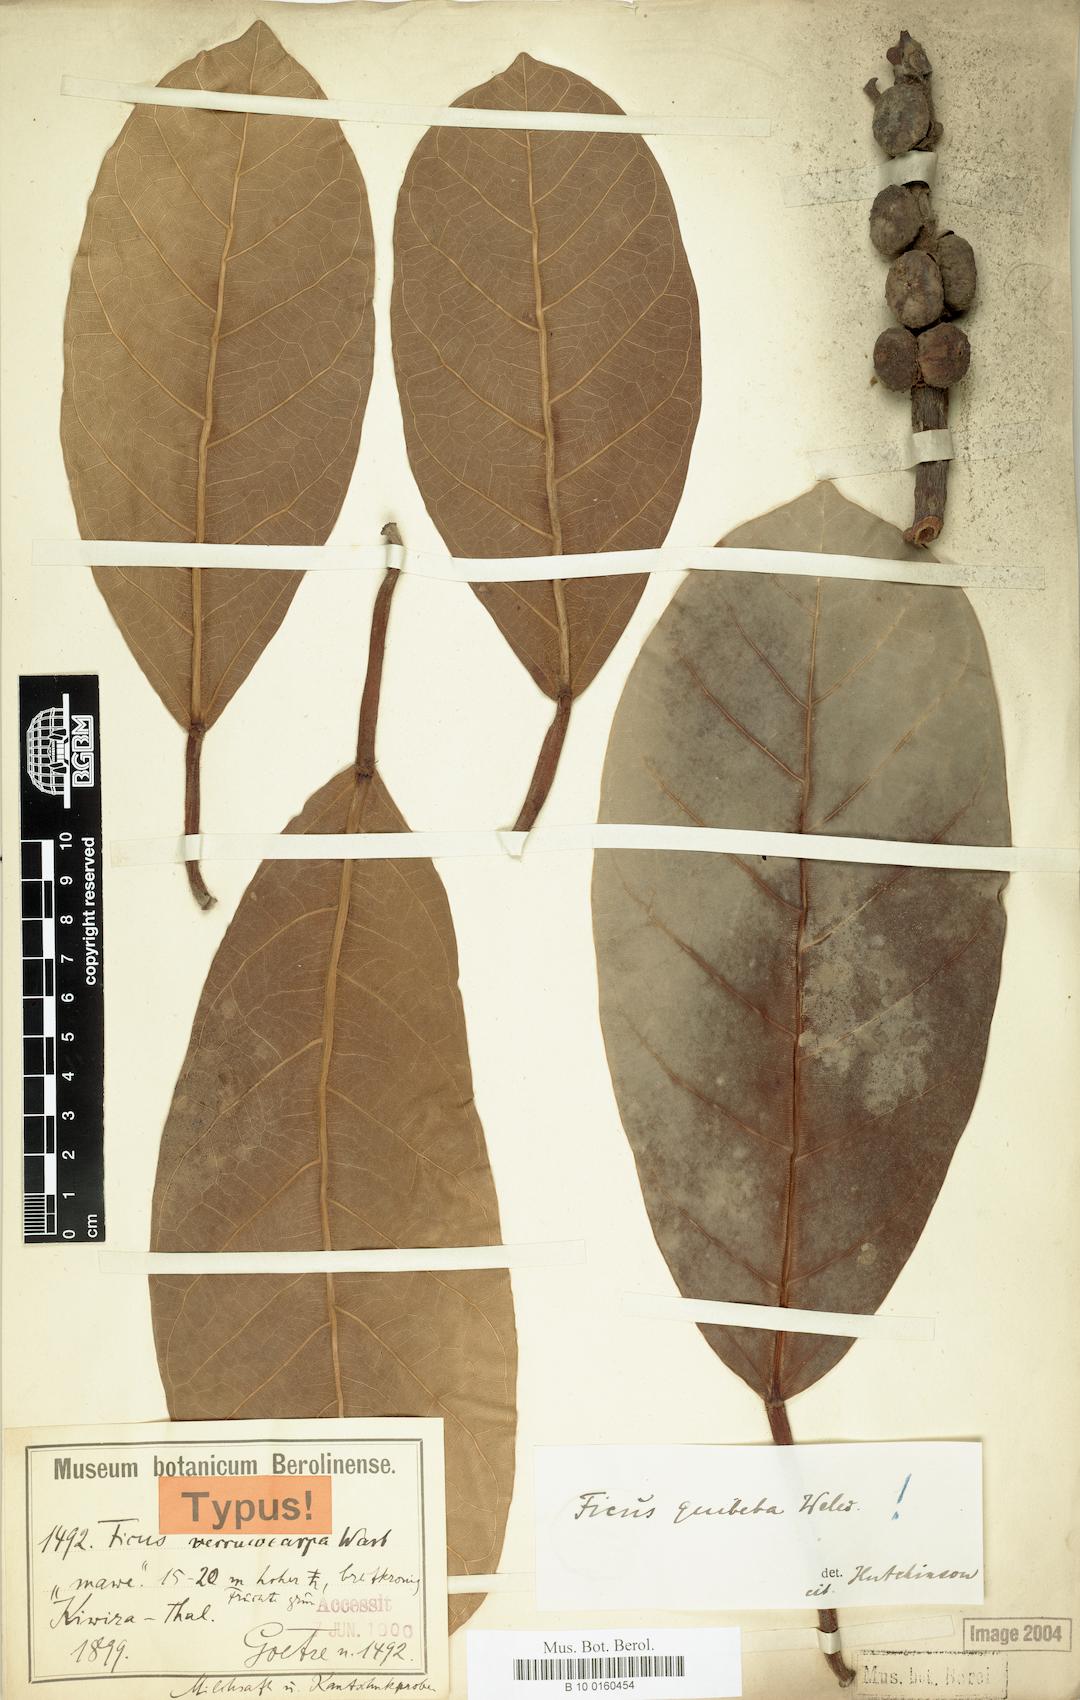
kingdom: Plantae
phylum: Tracheophyta
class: Magnoliopsida
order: Rosales
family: Moraceae
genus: Ficus
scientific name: Ficus lutea
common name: Giant-leaved fig
